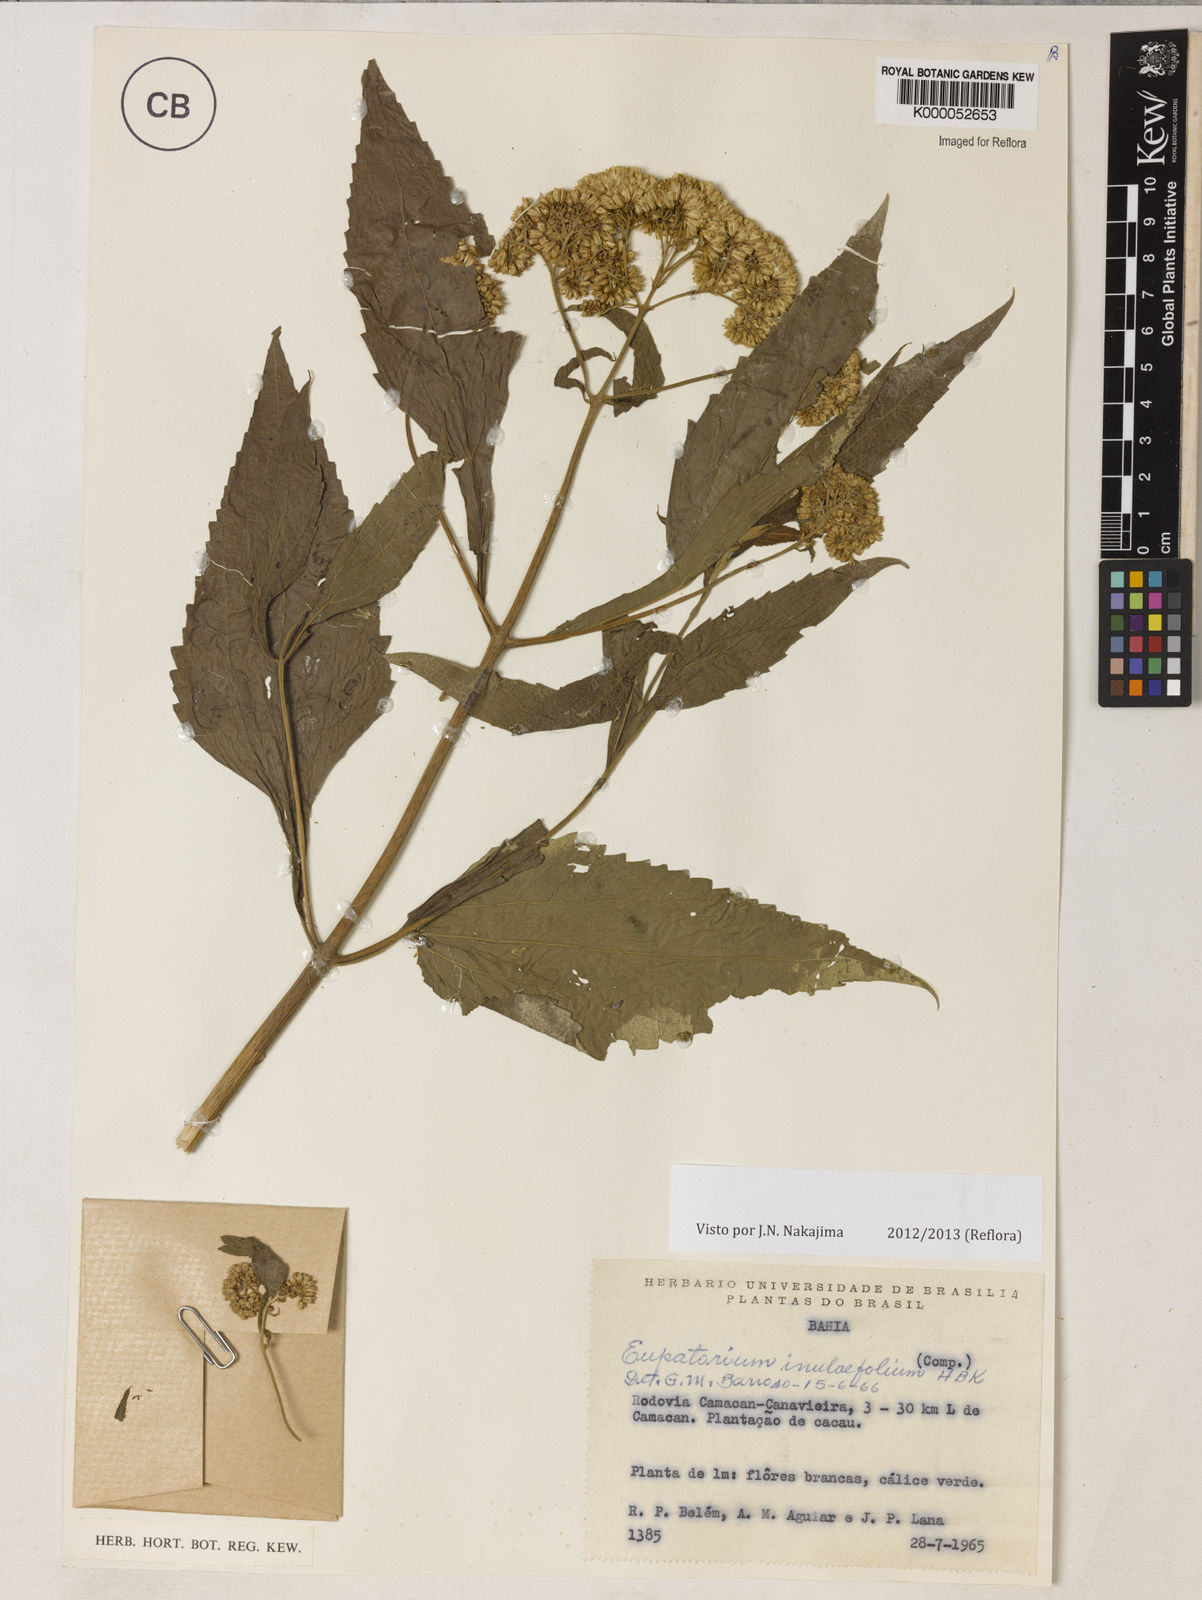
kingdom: Plantae
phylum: Tracheophyta
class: Magnoliopsida
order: Asterales
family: Asteraceae
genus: Austroeupatorium
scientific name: Austroeupatorium inulifolium
